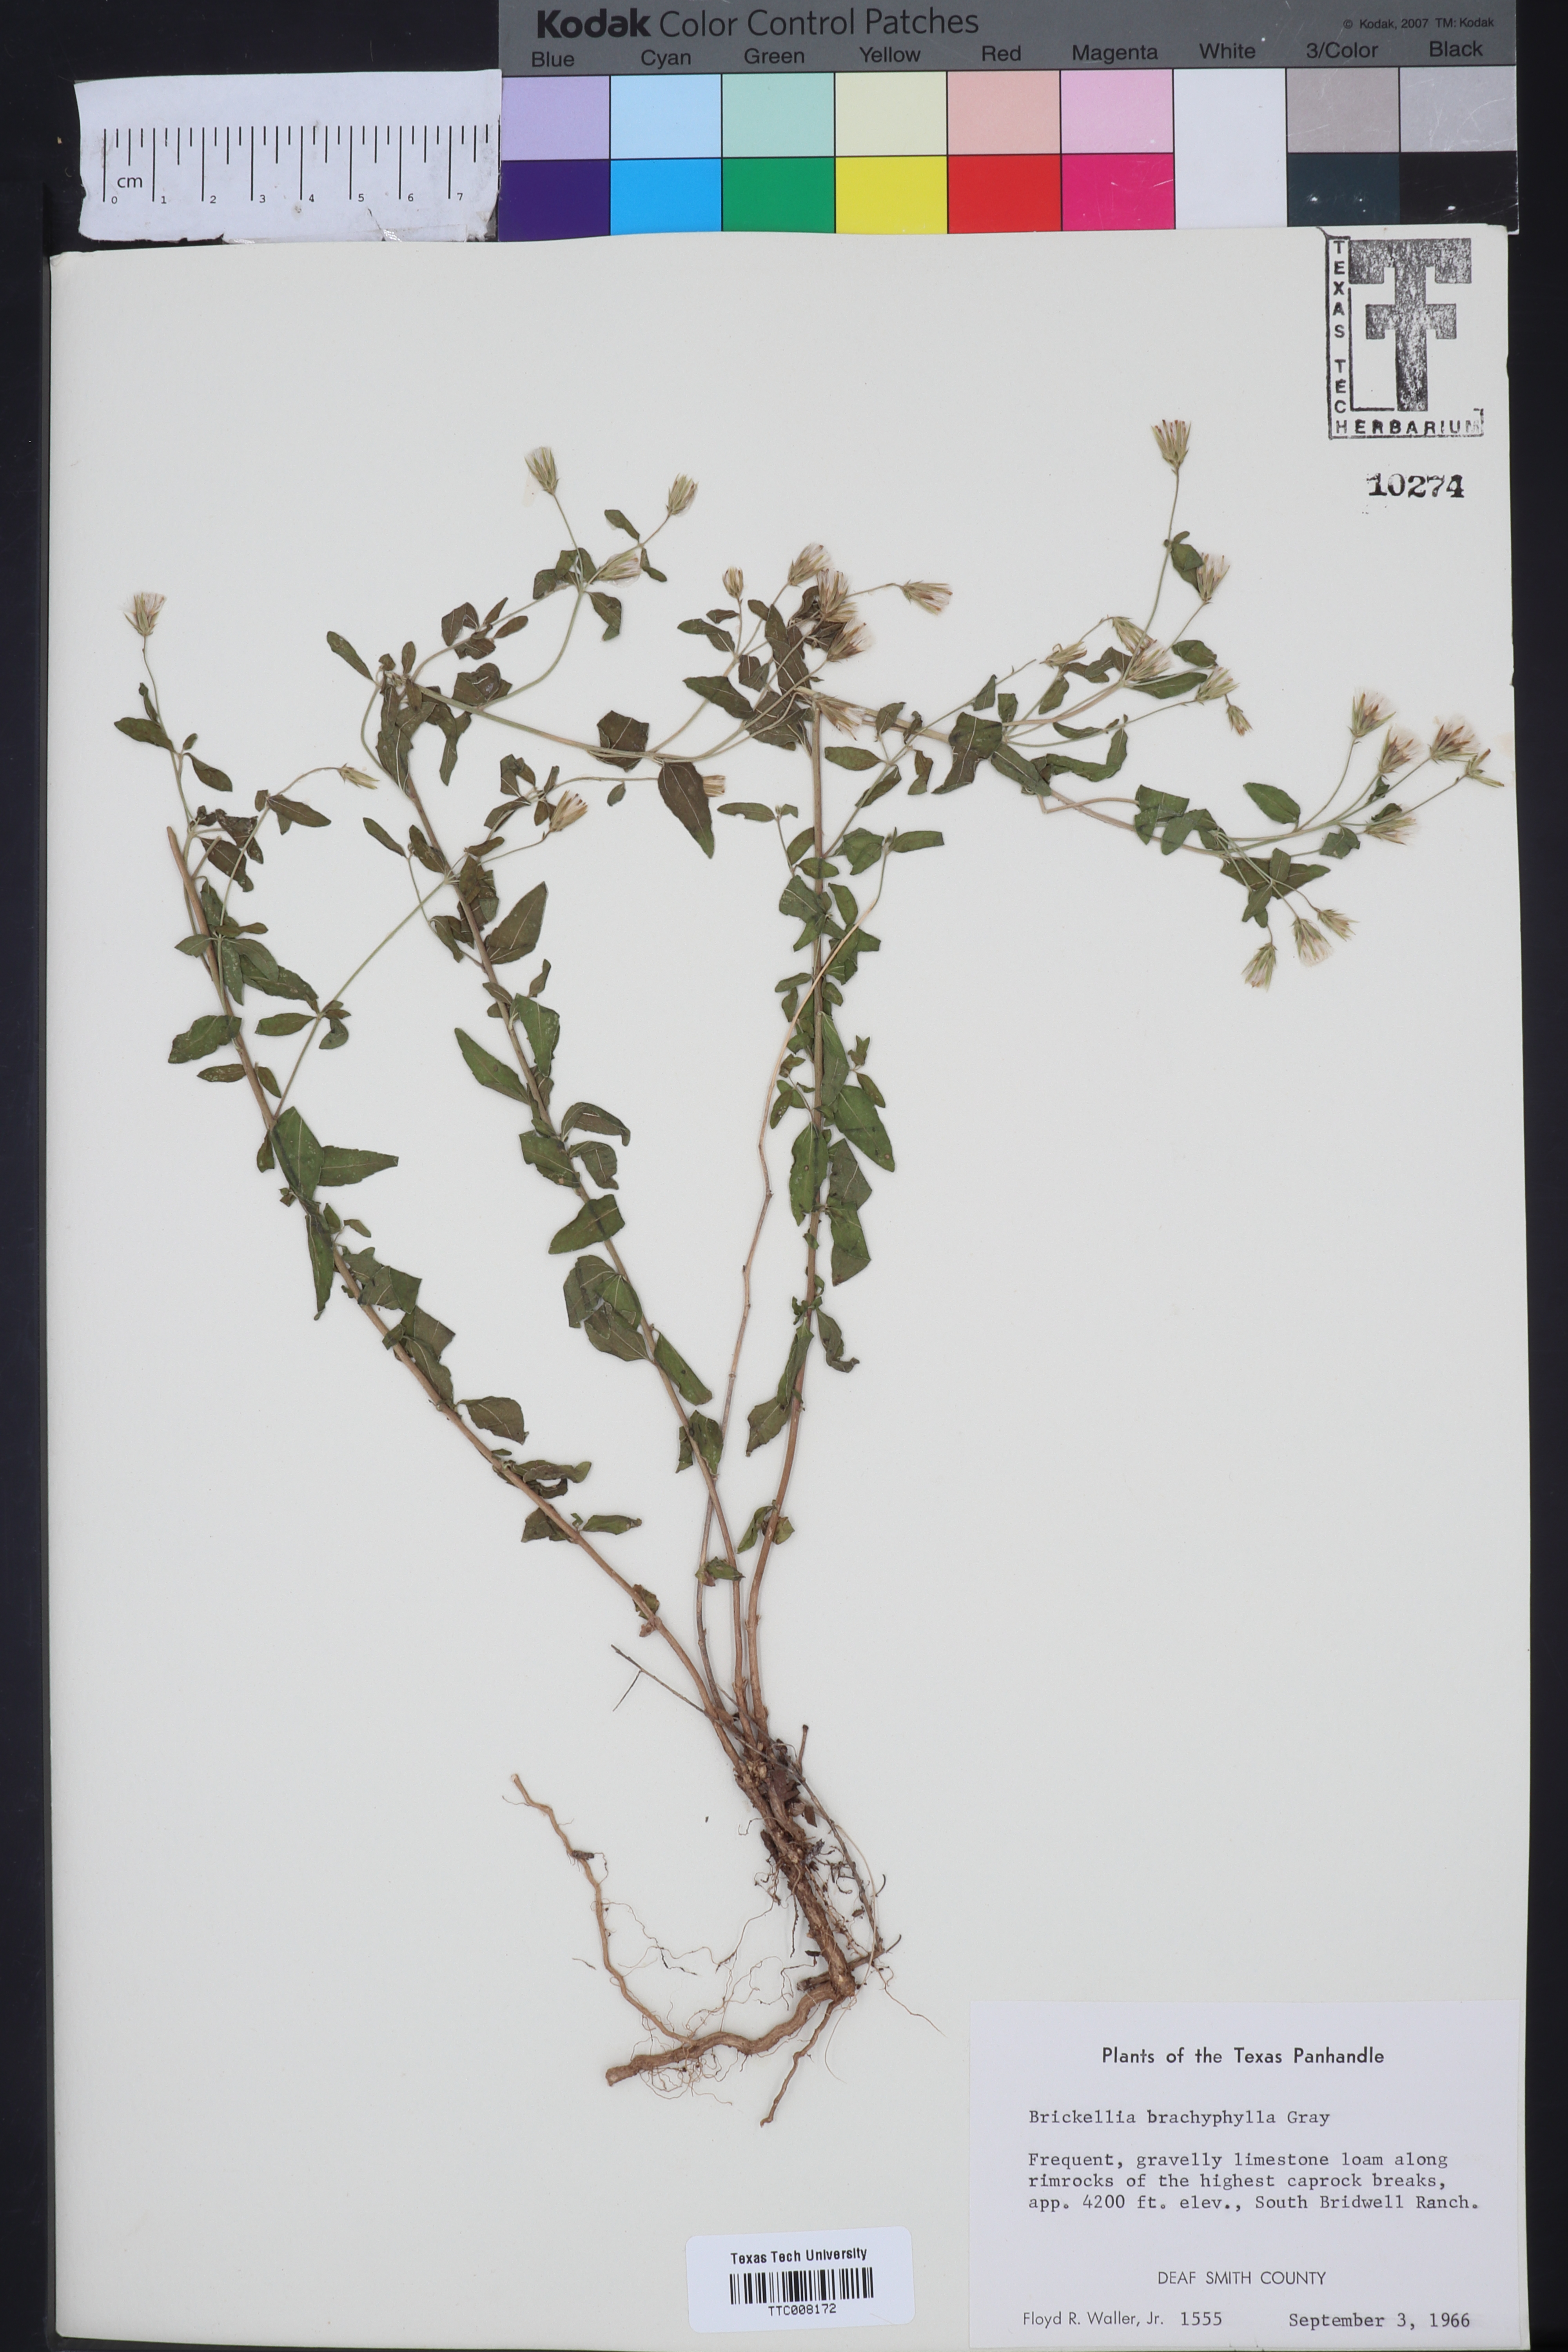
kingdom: Plantae
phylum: Tracheophyta
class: Magnoliopsida
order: Asterales
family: Asteraceae
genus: Brickellia
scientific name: Brickellia brachyphylla
